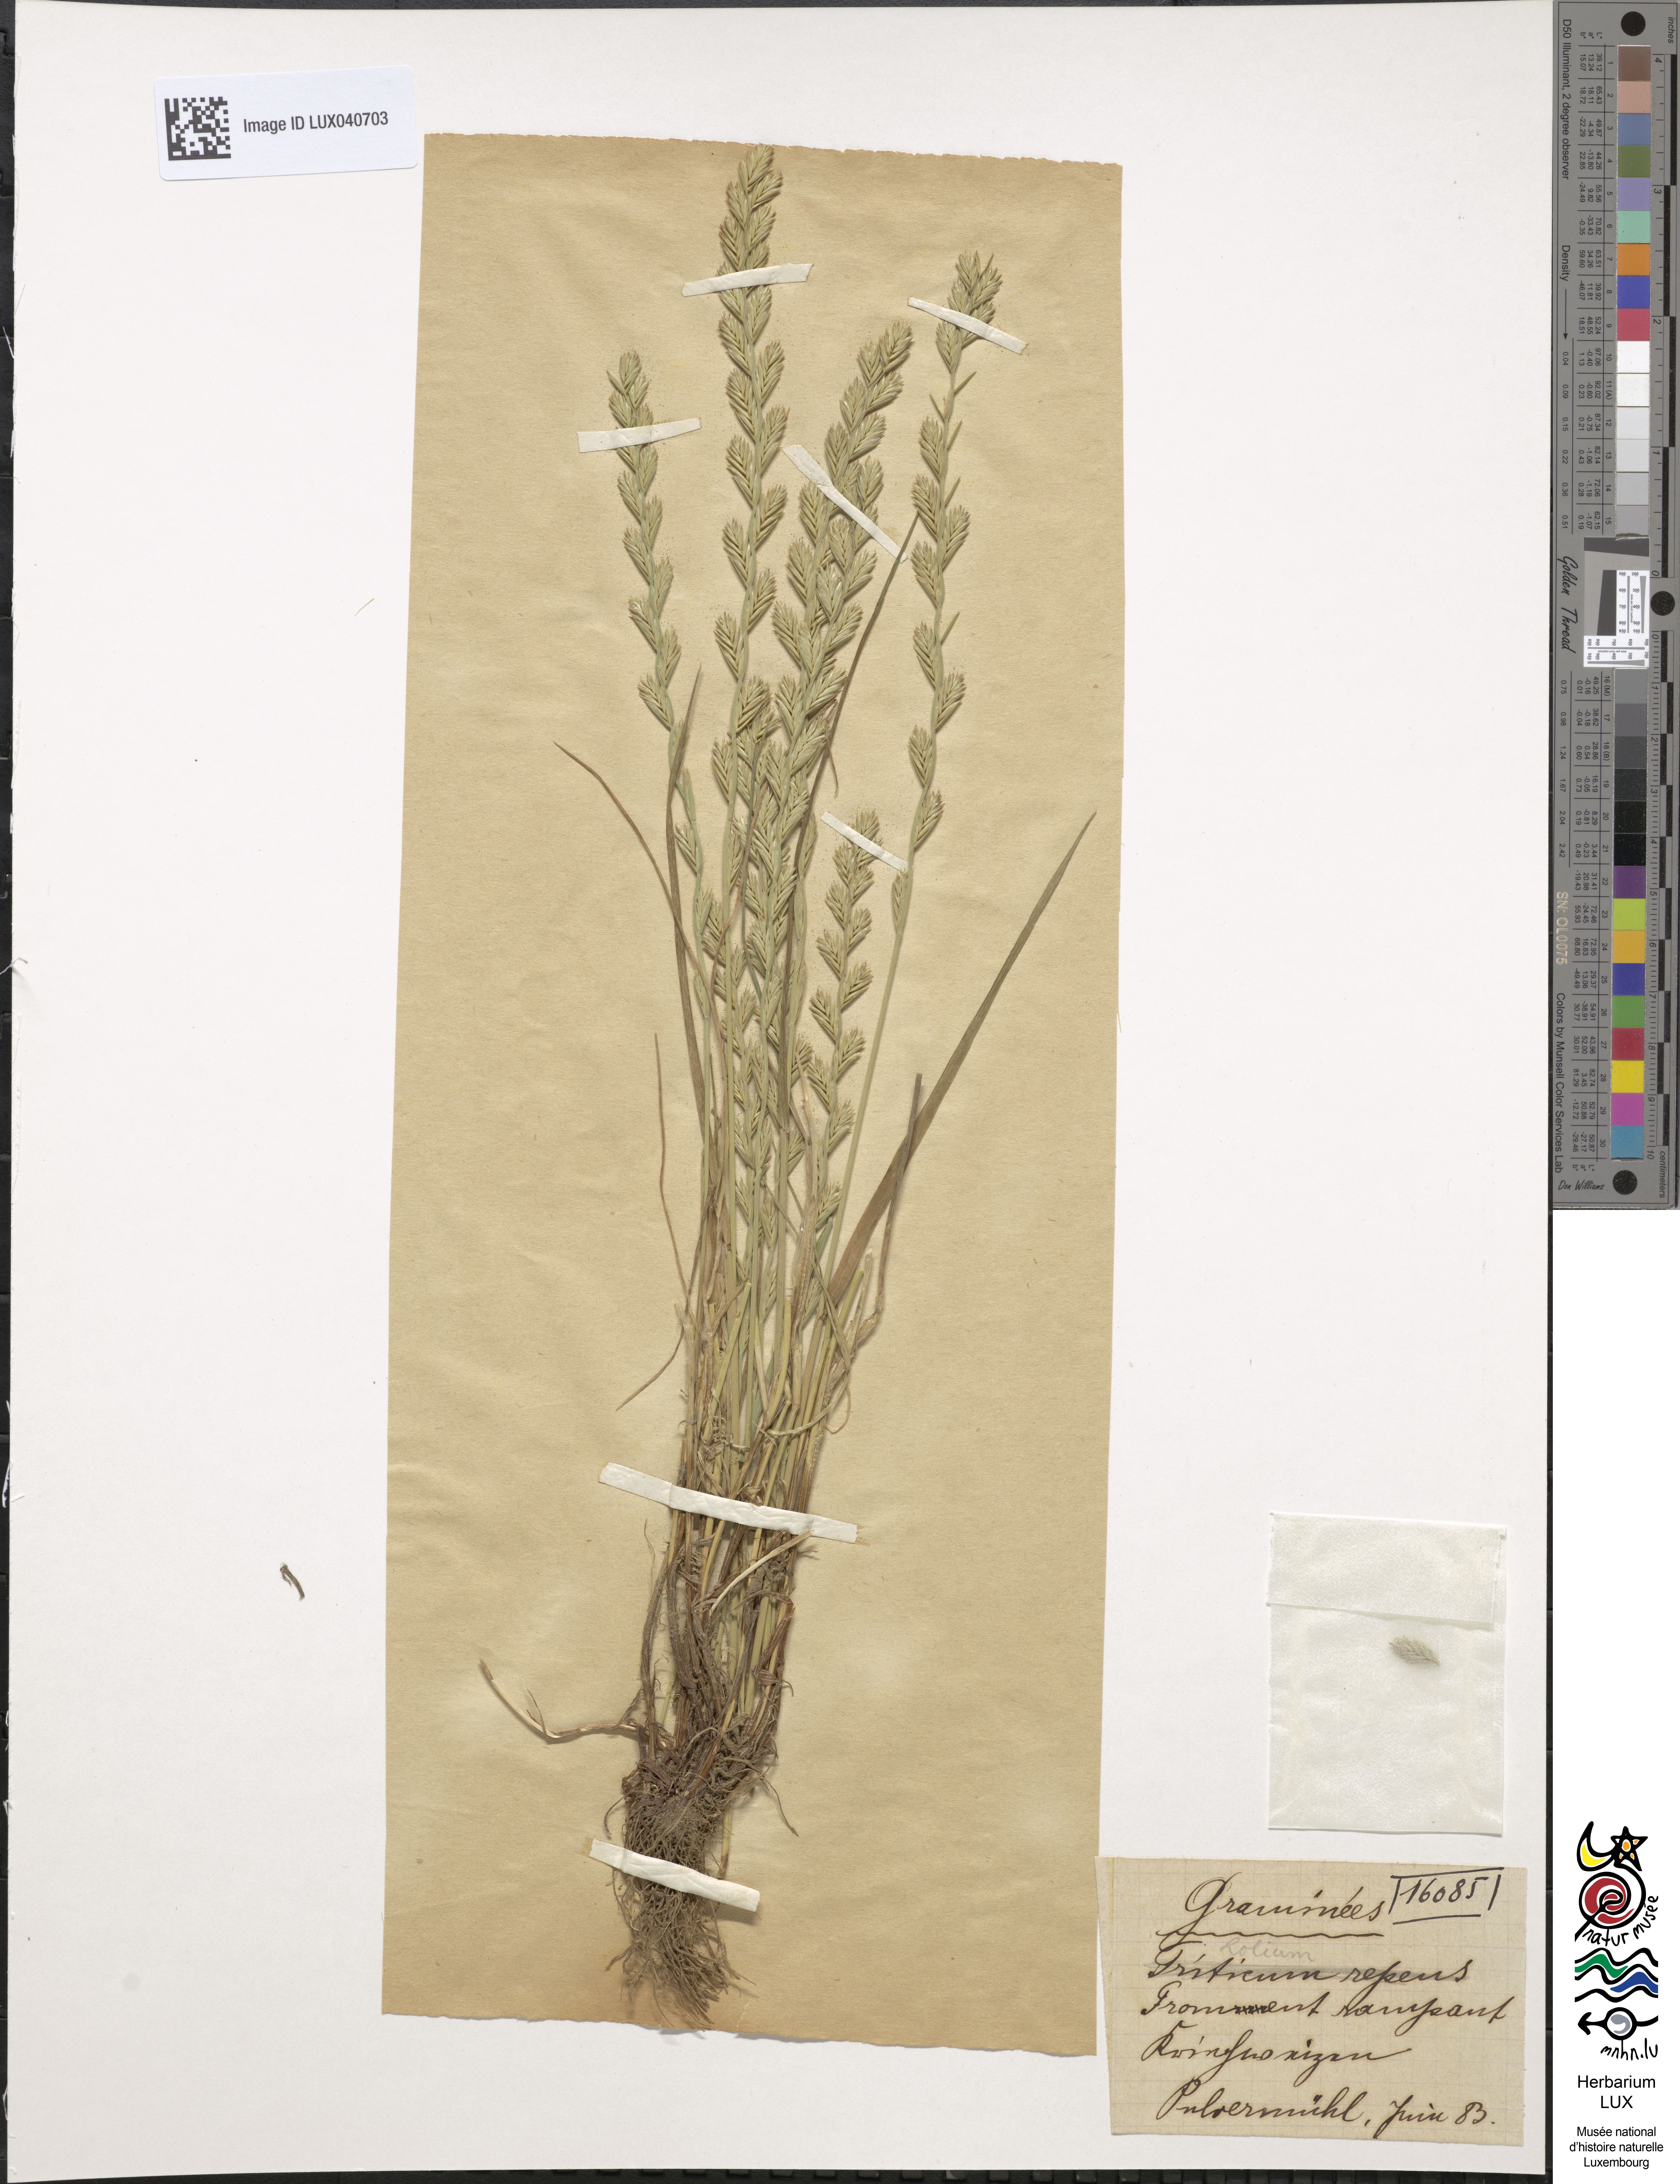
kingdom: Plantae
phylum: Tracheophyta
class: Liliopsida
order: Poales
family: Poaceae
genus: Lolium
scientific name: Lolium
